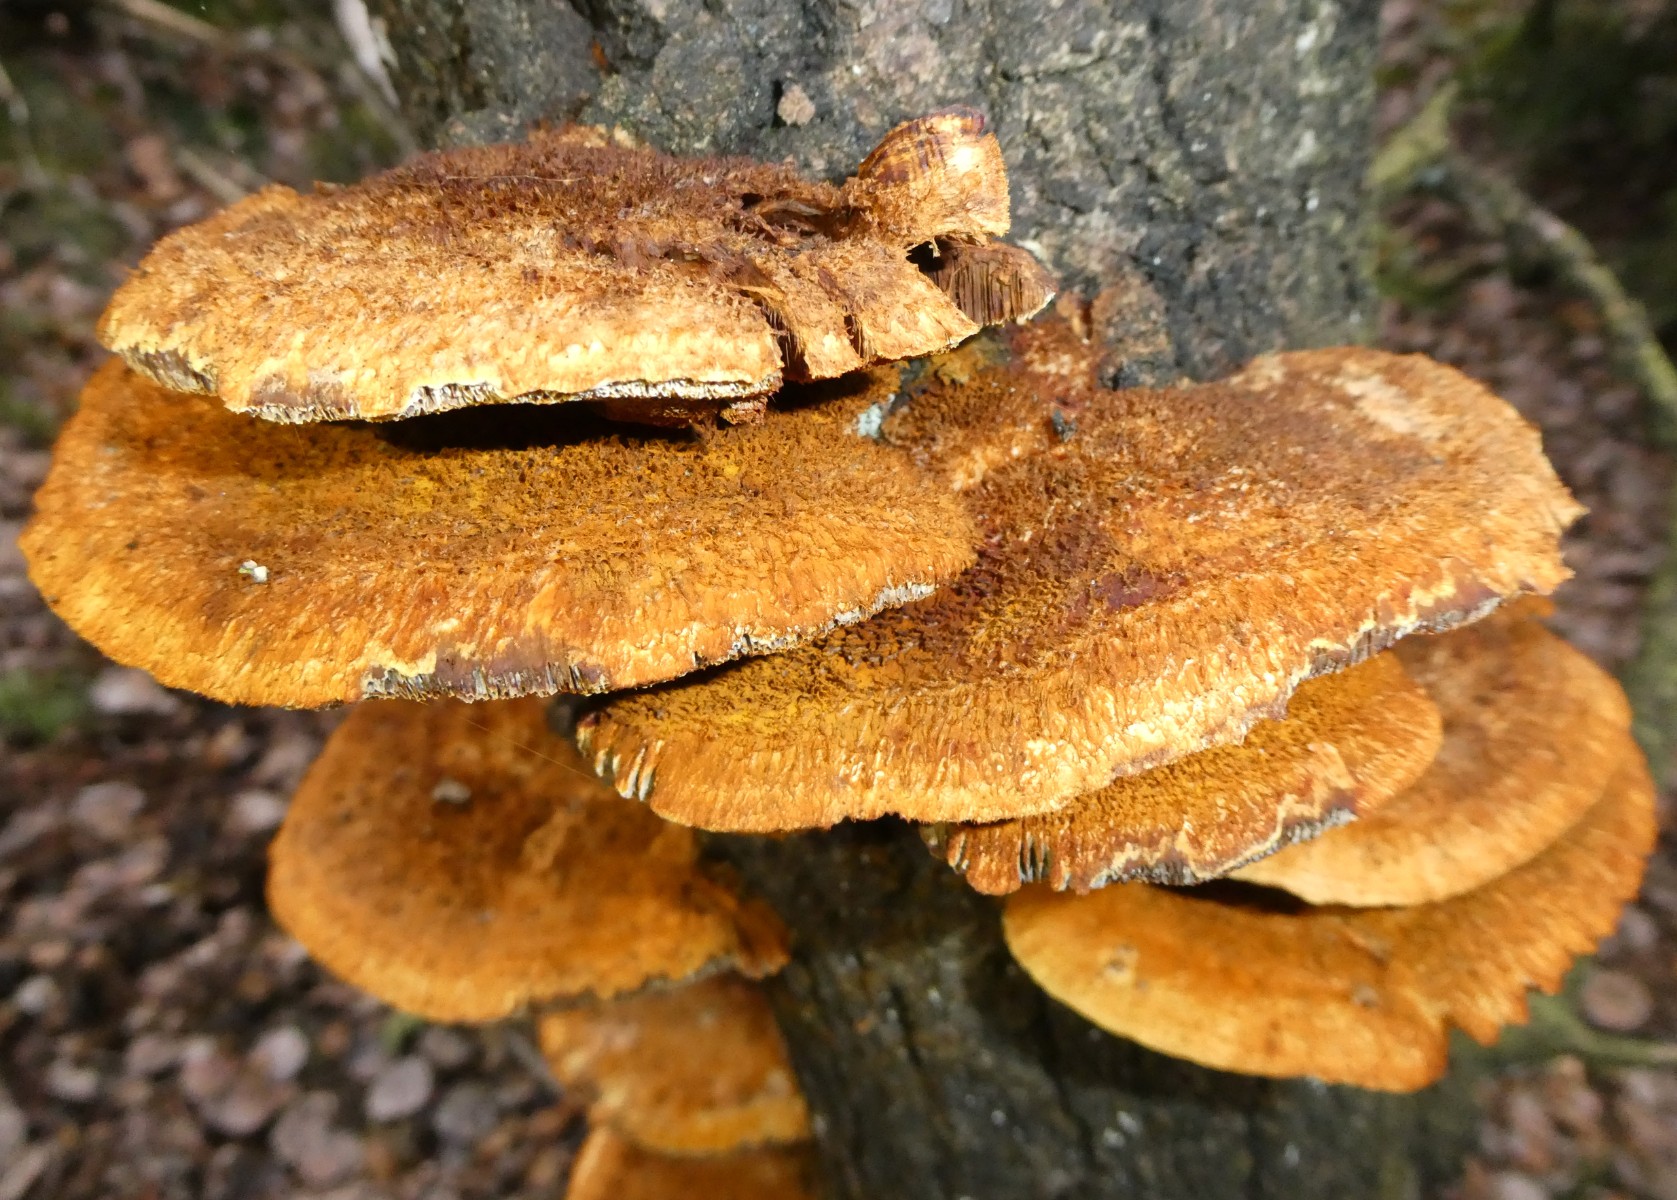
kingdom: Fungi
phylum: Basidiomycota
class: Agaricomycetes
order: Hymenochaetales
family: Hymenochaetaceae
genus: Inocutis
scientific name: Inocutis rheades
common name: ræve-spejlporesvamp
